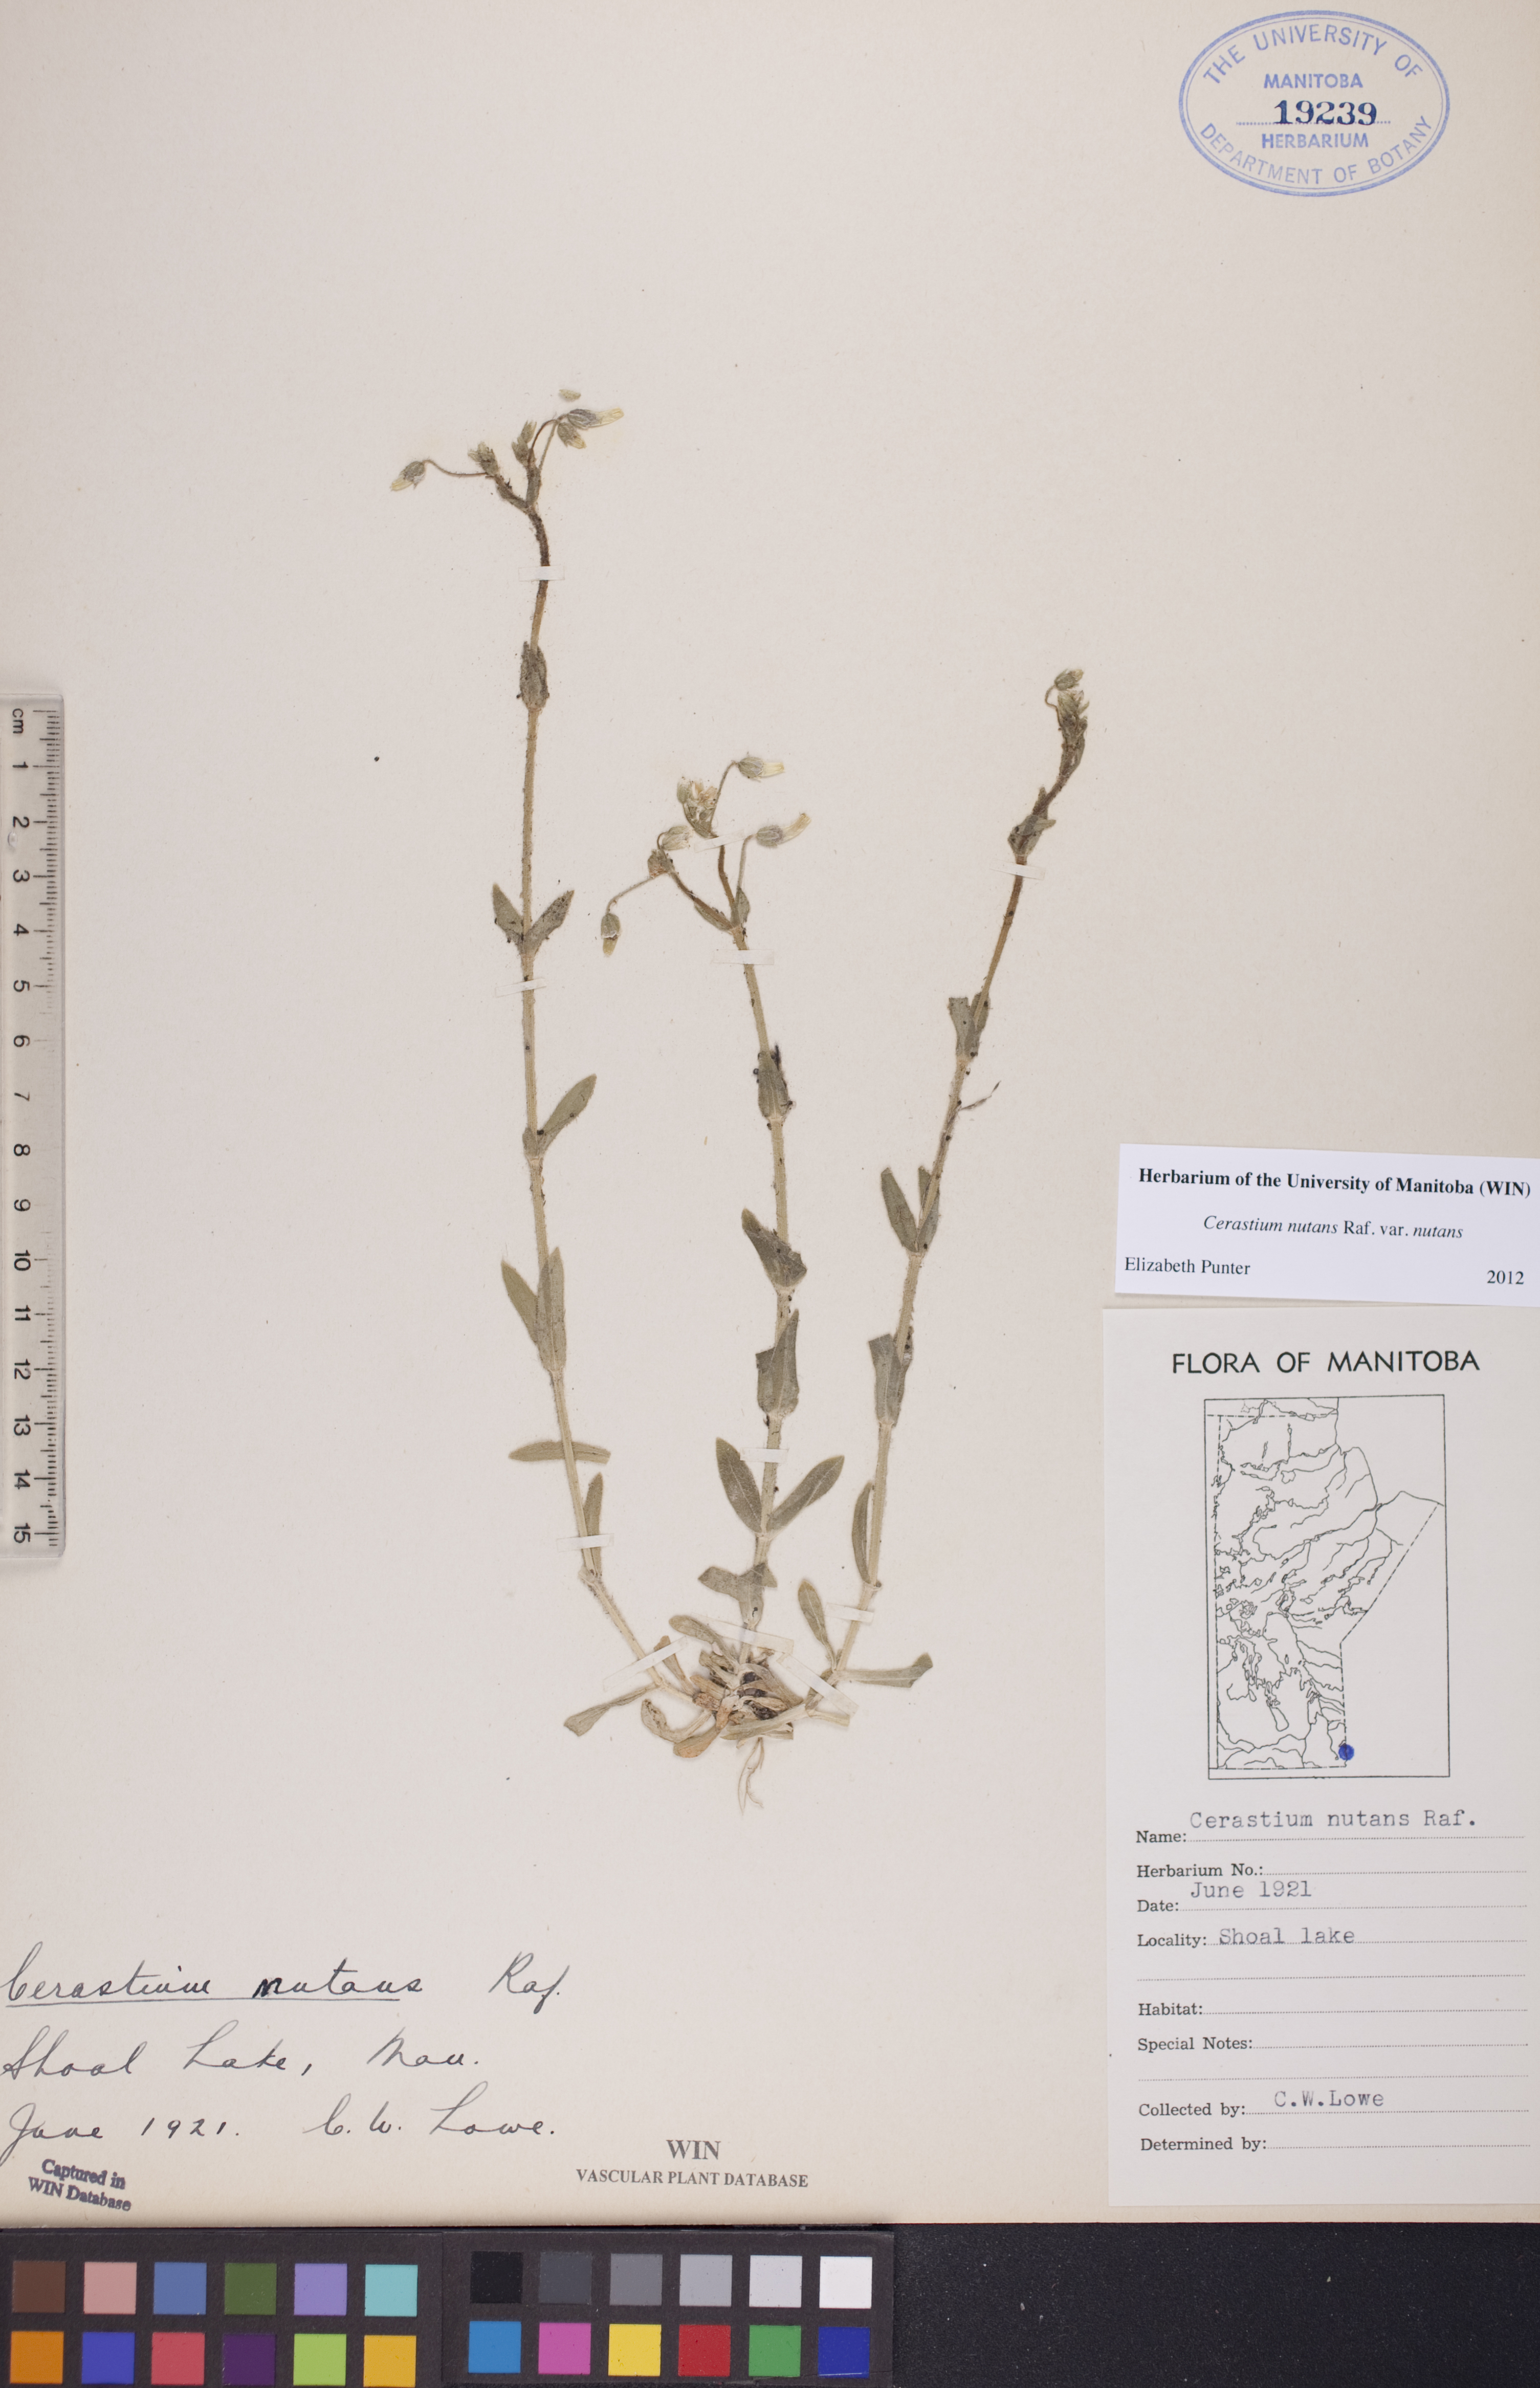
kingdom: Plantae
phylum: Tracheophyta
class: Magnoliopsida
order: Caryophyllales
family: Caryophyllaceae
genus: Cerastium
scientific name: Cerastium nutans
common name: Long-stalked chickweed
